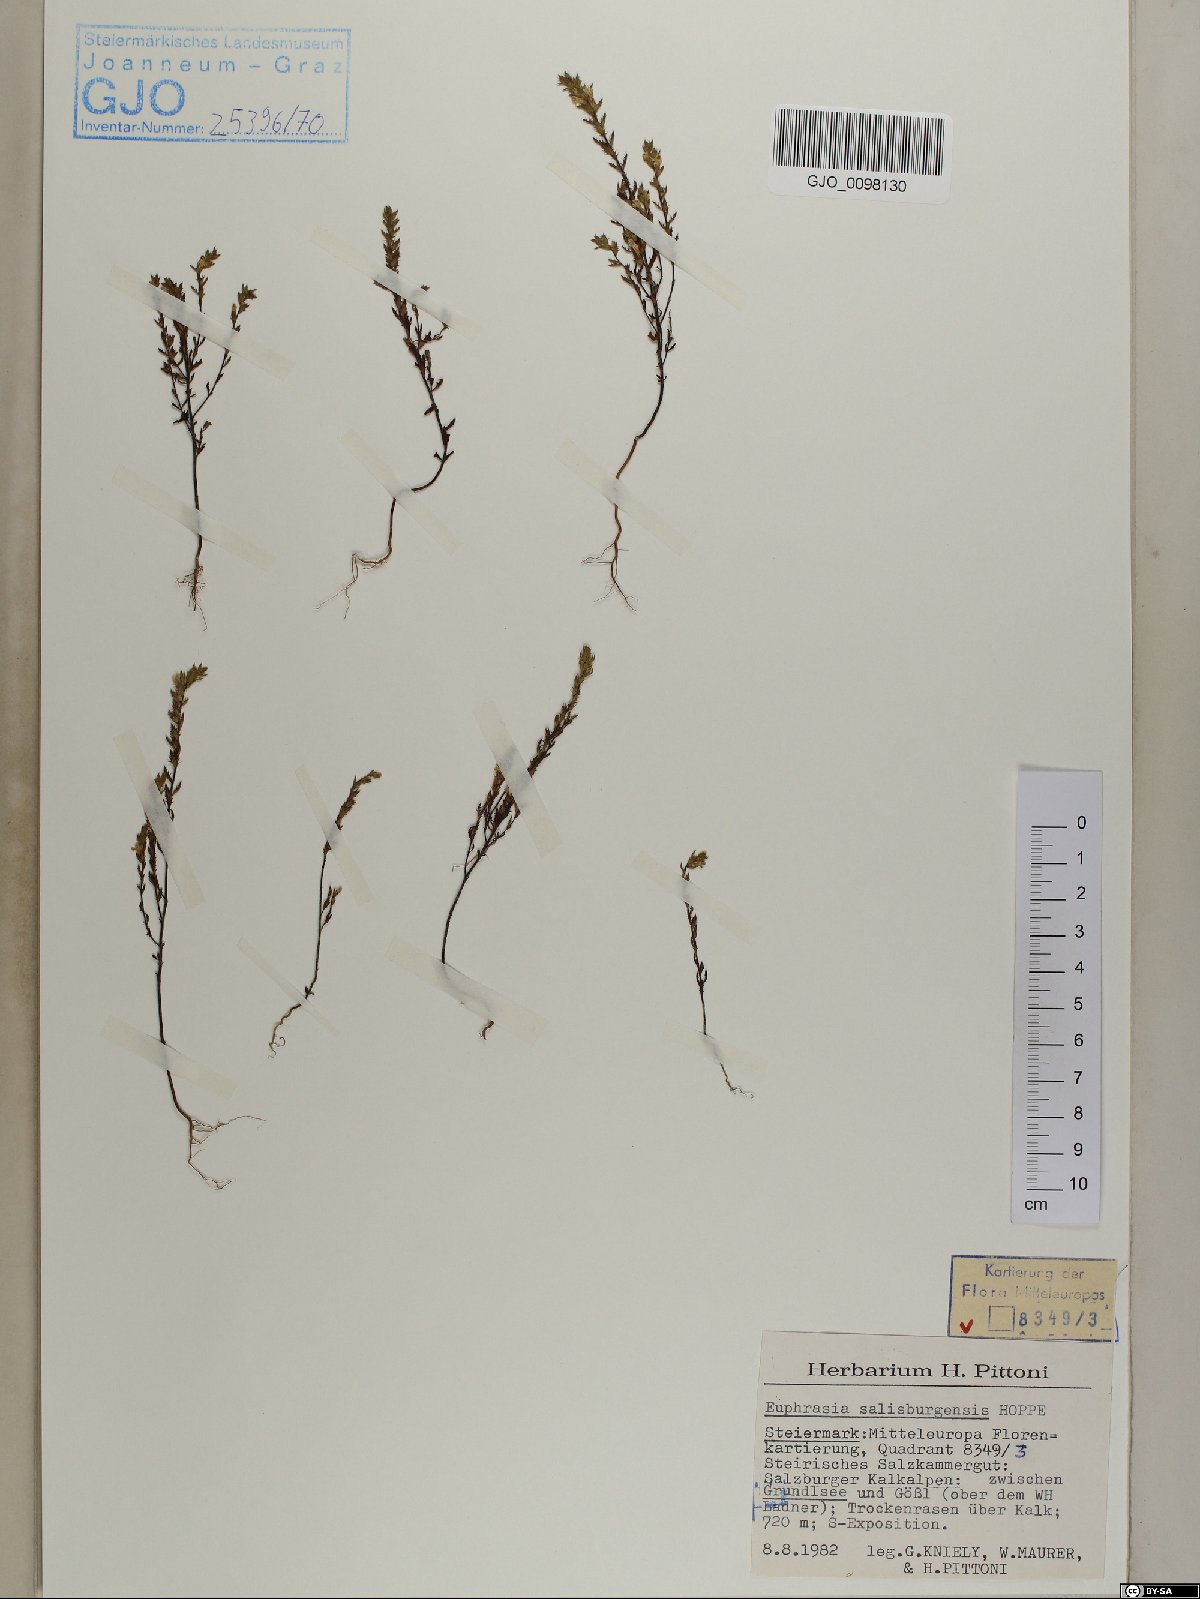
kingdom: Plantae
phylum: Tracheophyta
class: Magnoliopsida
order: Lamiales
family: Orobanchaceae
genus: Euphrasia
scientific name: Euphrasia salisburgensis
